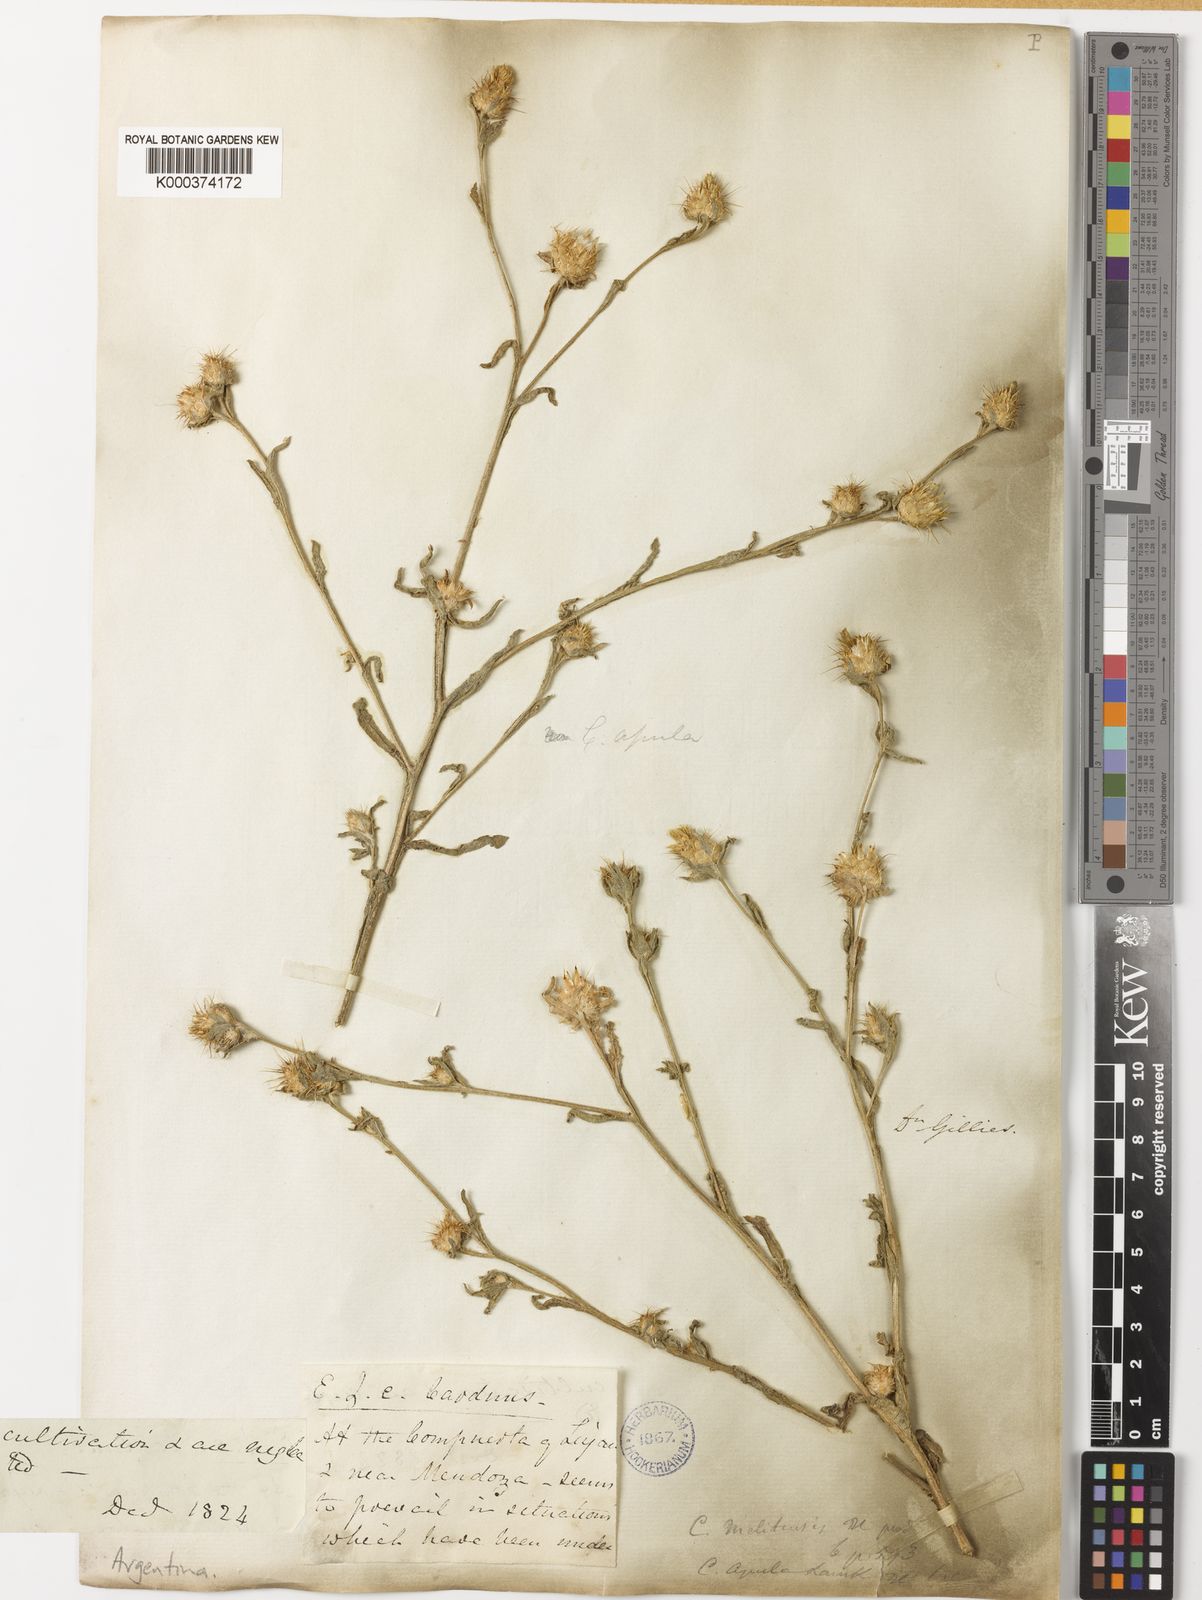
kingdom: Plantae
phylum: Tracheophyta
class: Magnoliopsida
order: Asterales
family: Asteraceae
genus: Centaurea
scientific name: Centaurea melitensis
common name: Maltese star-thistle
